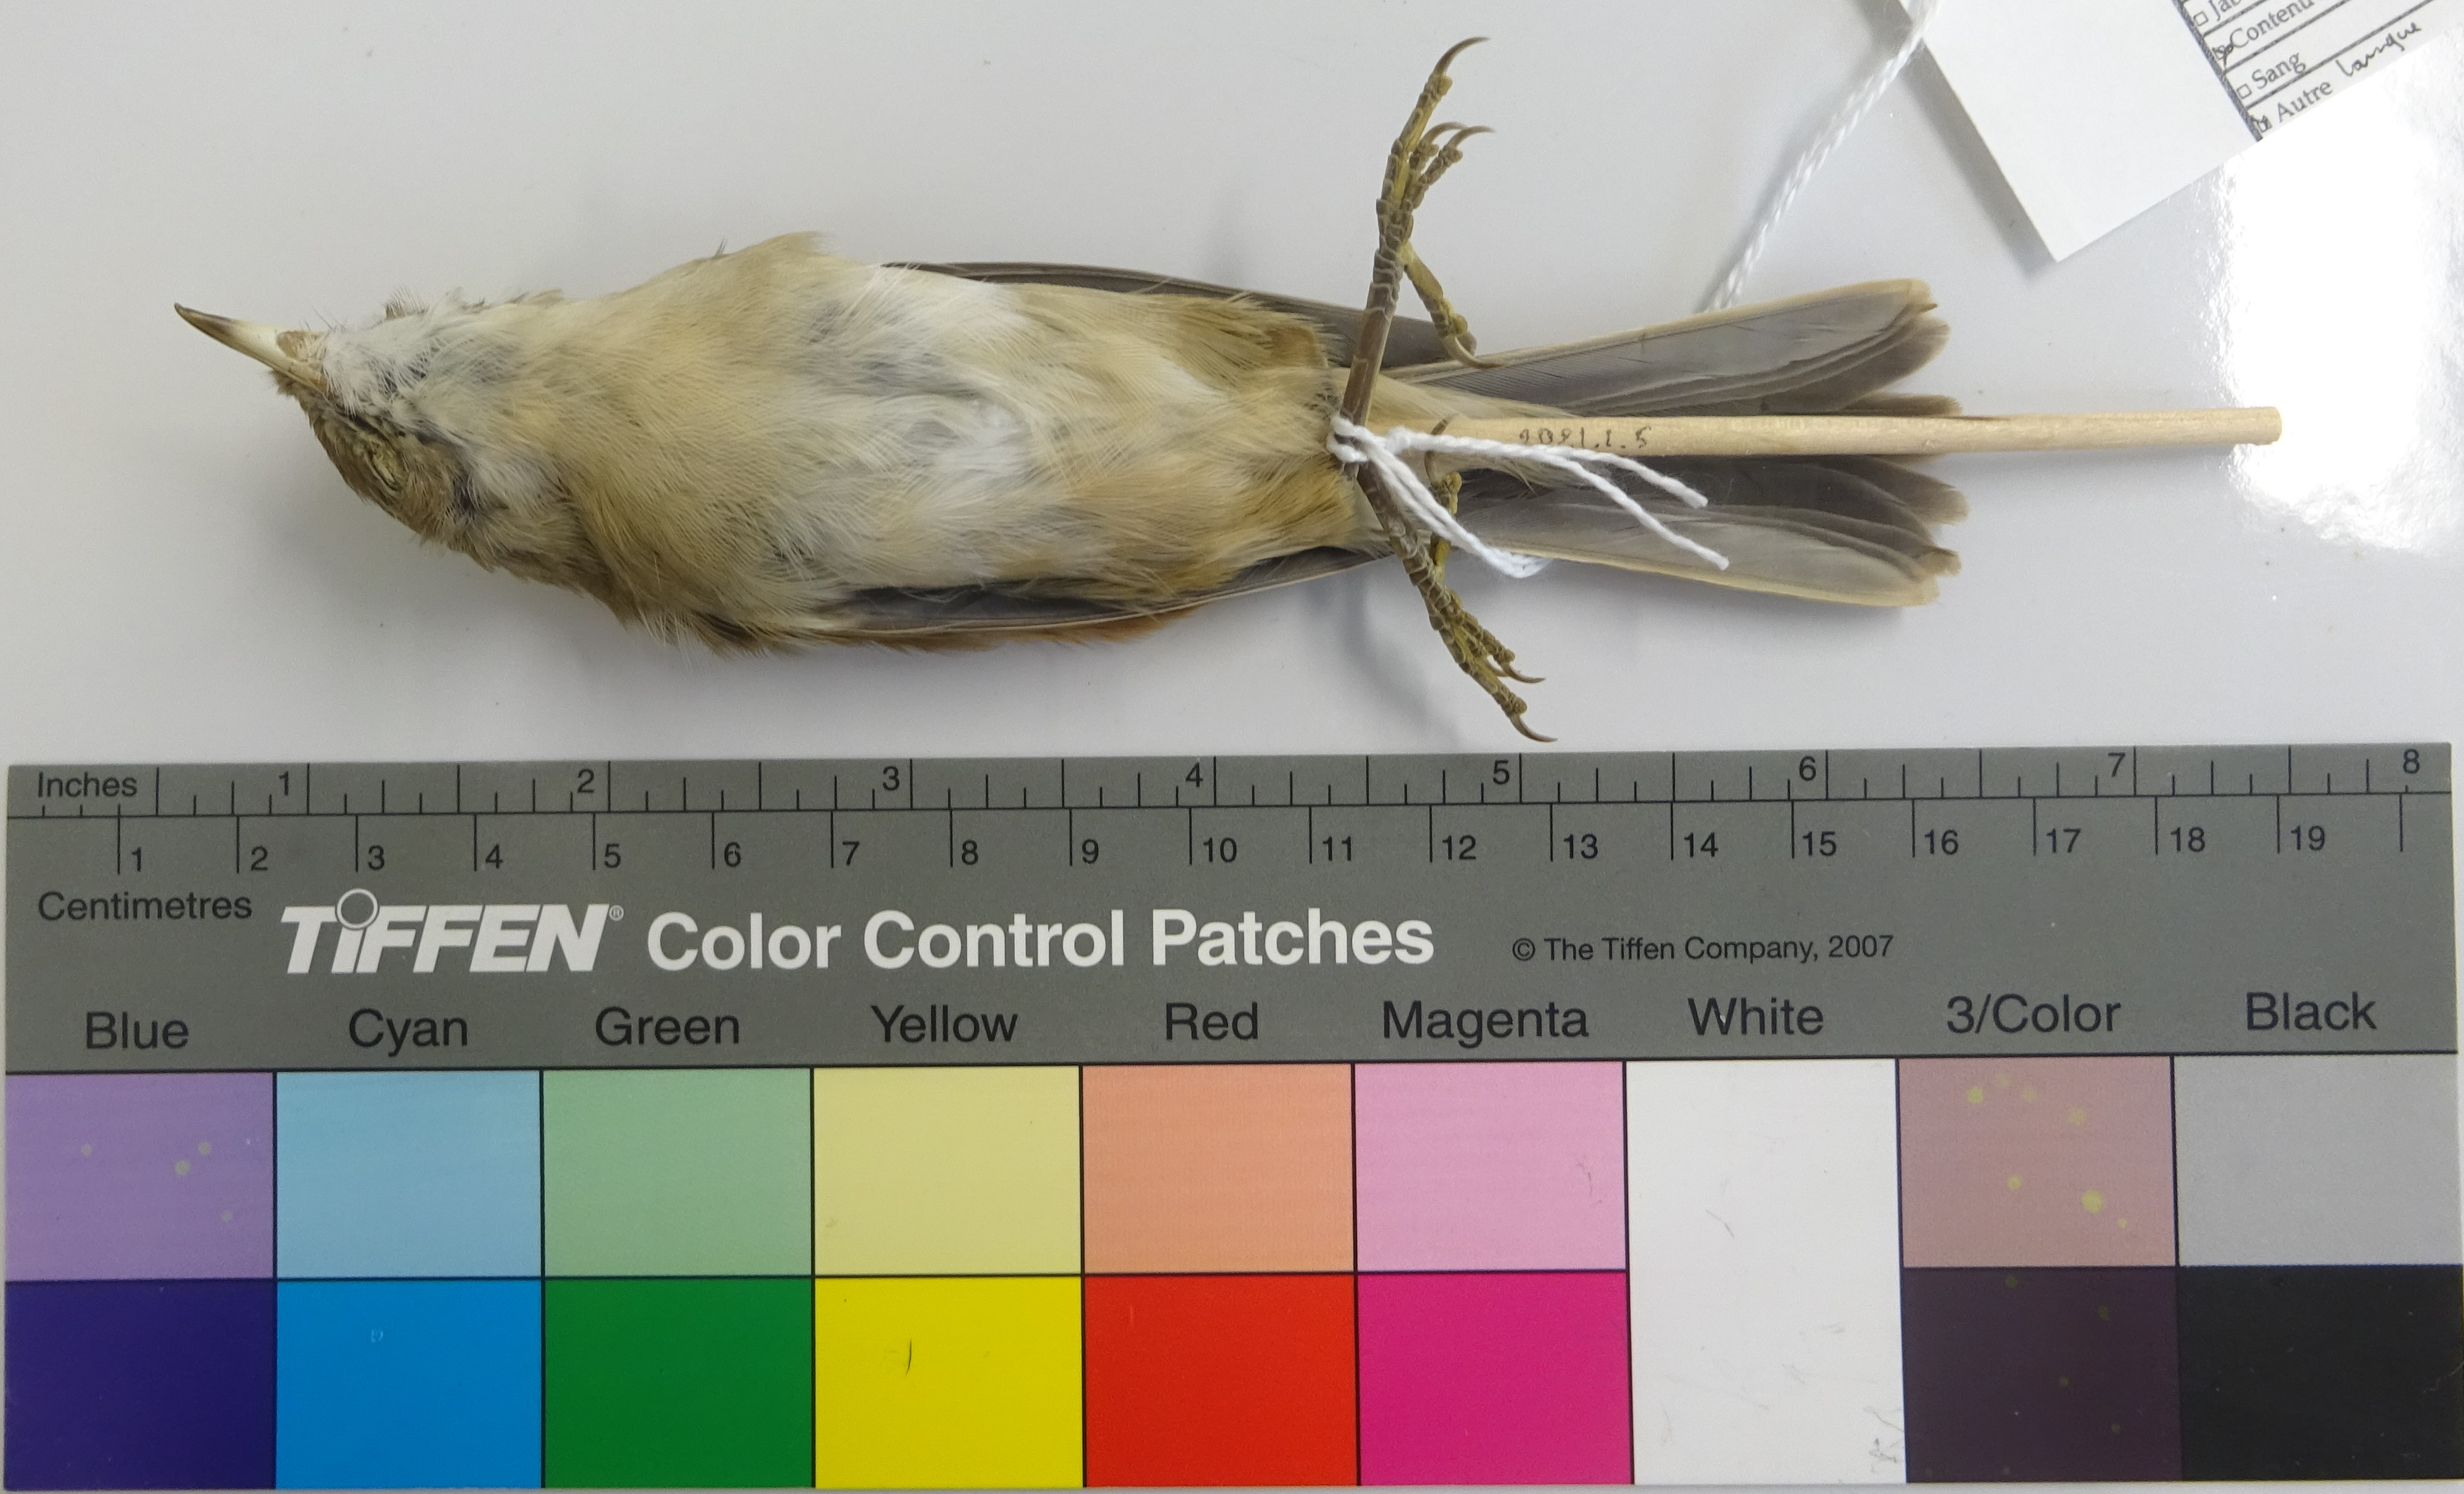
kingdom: Animalia
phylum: Chordata
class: Aves
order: Passeriformes
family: Sylviidae
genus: Sylvia
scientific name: Sylvia communis
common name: Common whitethroat
